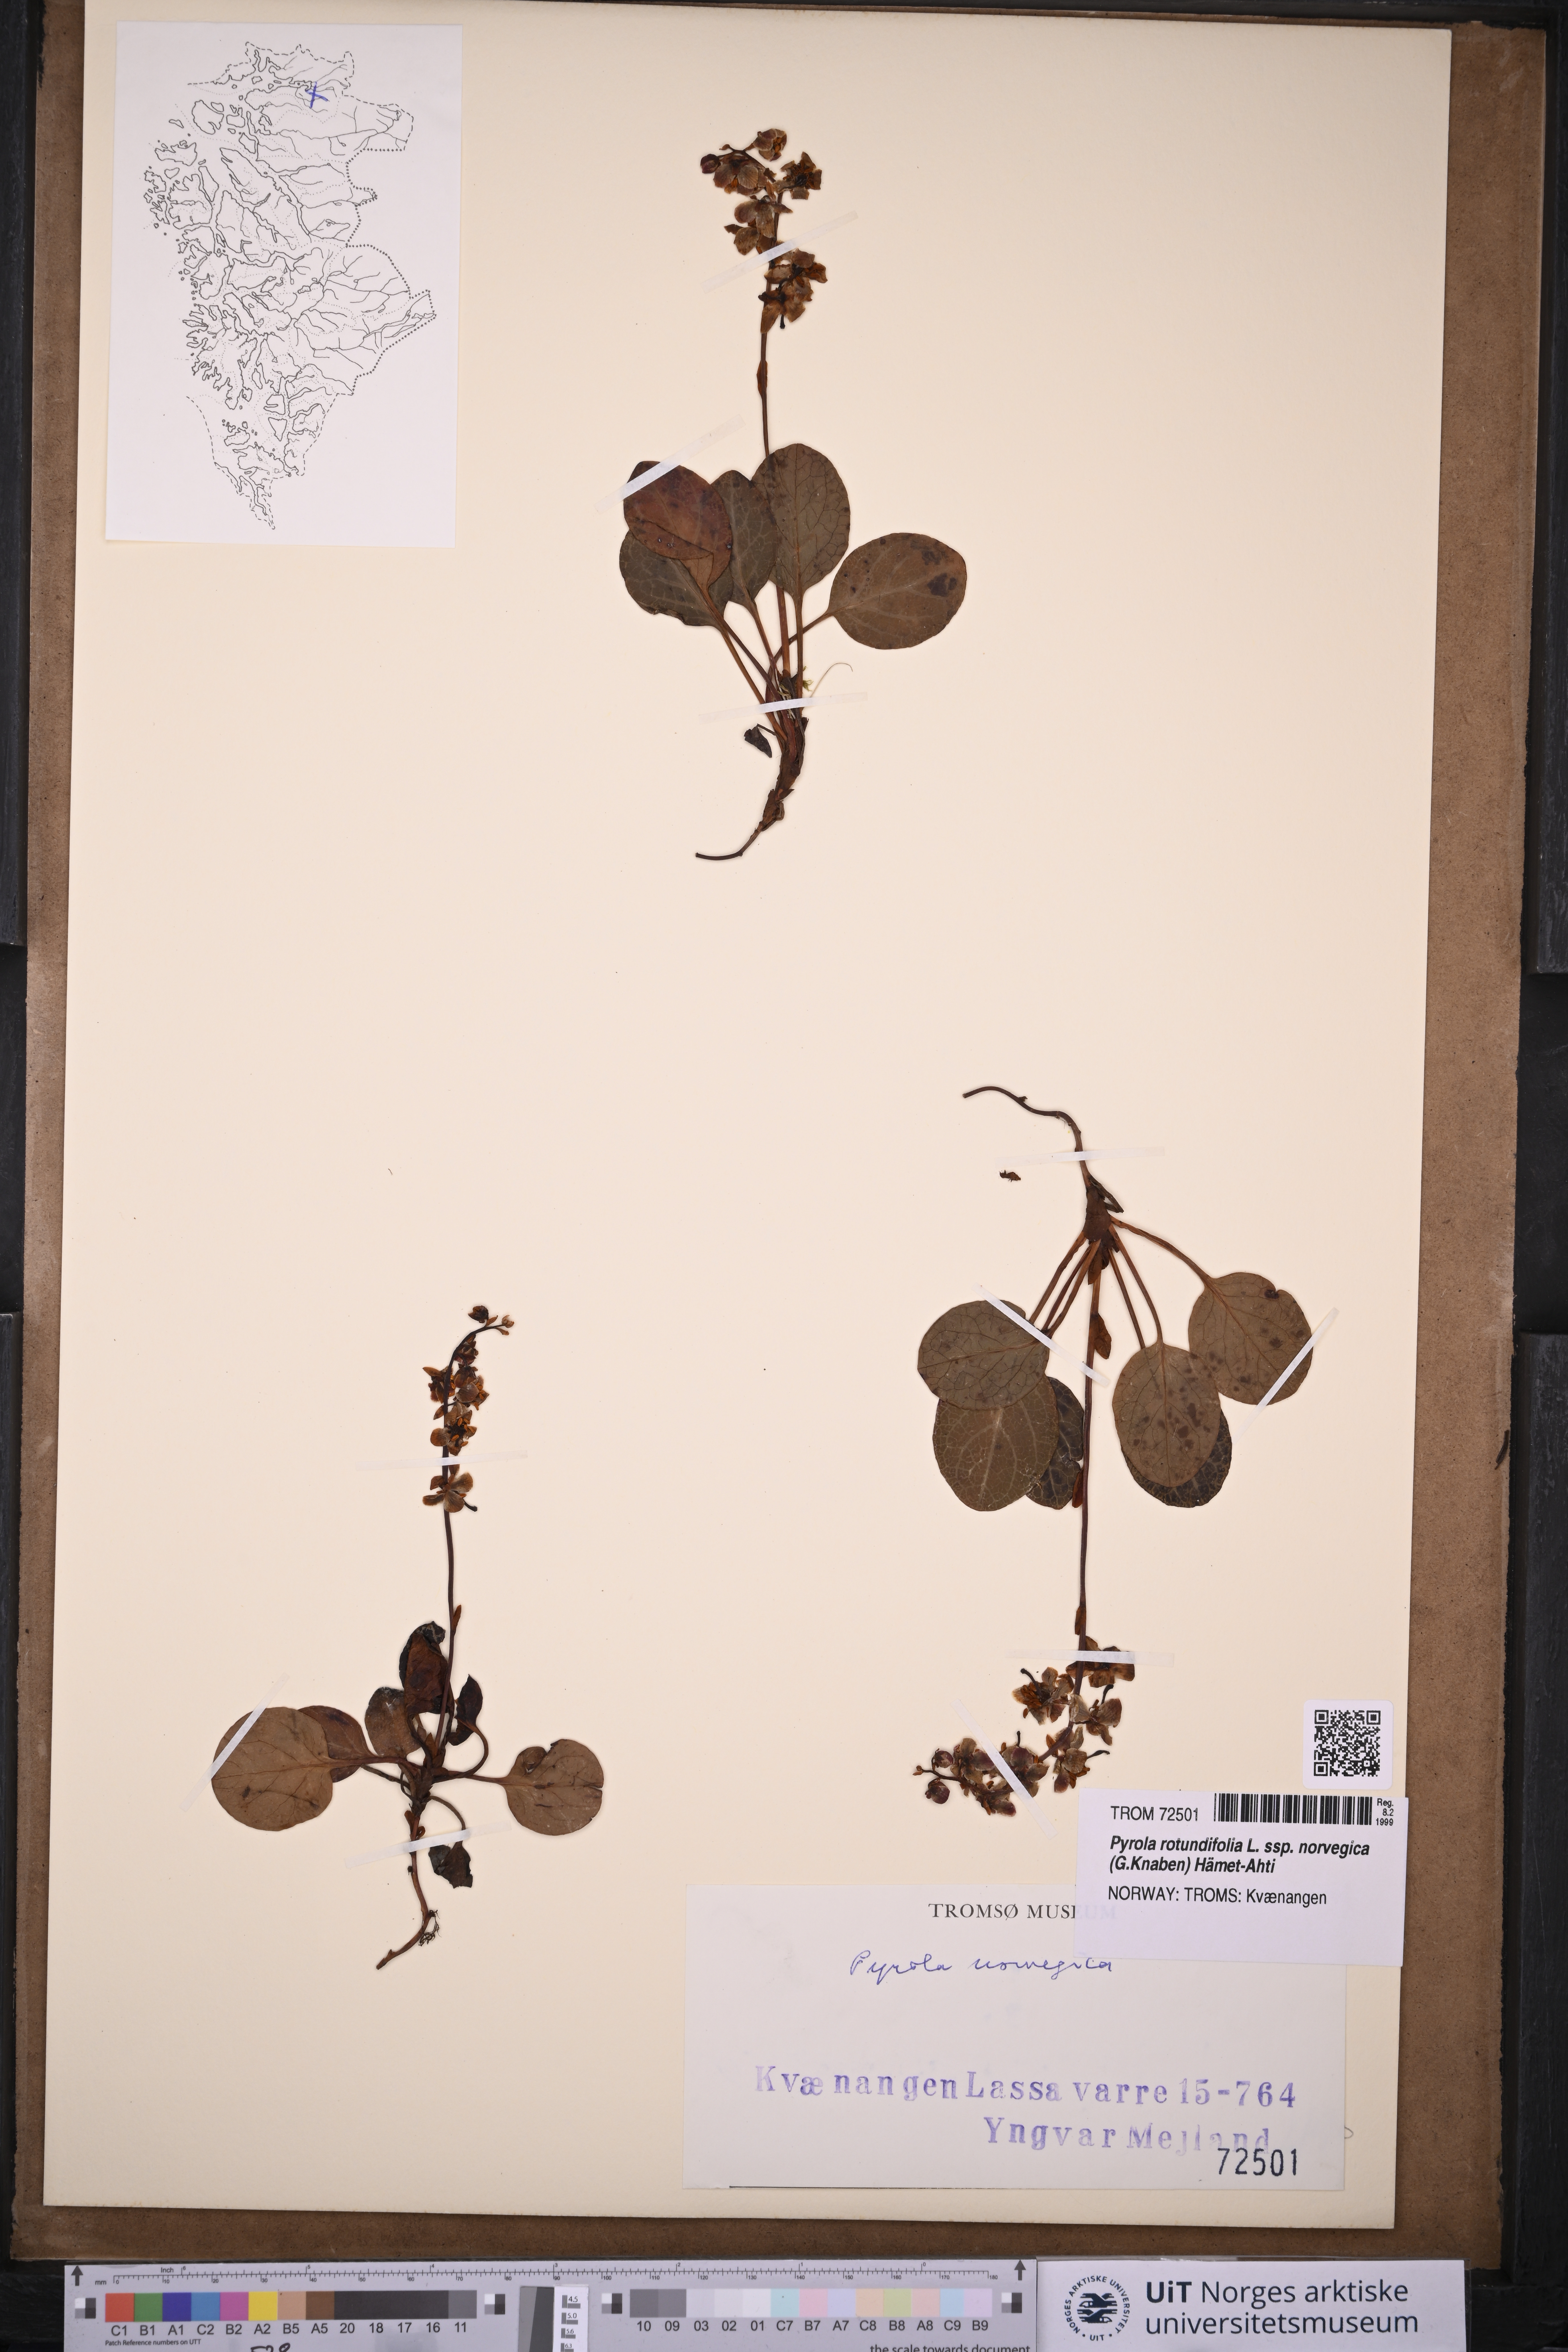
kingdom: Plantae
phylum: Tracheophyta
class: Magnoliopsida
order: Ericales
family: Ericaceae
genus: Pyrola
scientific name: Pyrola rotundifolia
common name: Round-leaved wintergreen
